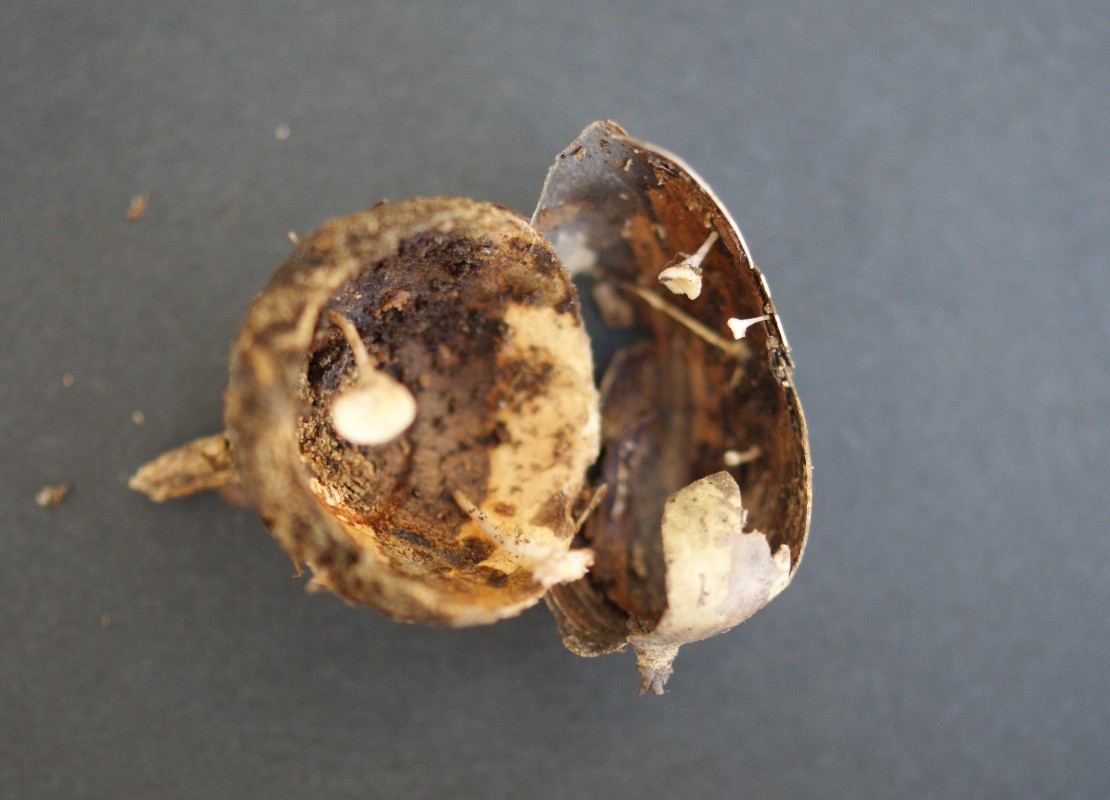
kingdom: Fungi
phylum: Ascomycota
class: Leotiomycetes
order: Helotiales
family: Lachnaceae
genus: Lachnum
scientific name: Lachnum virgineum
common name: jomfru-frynseskive
